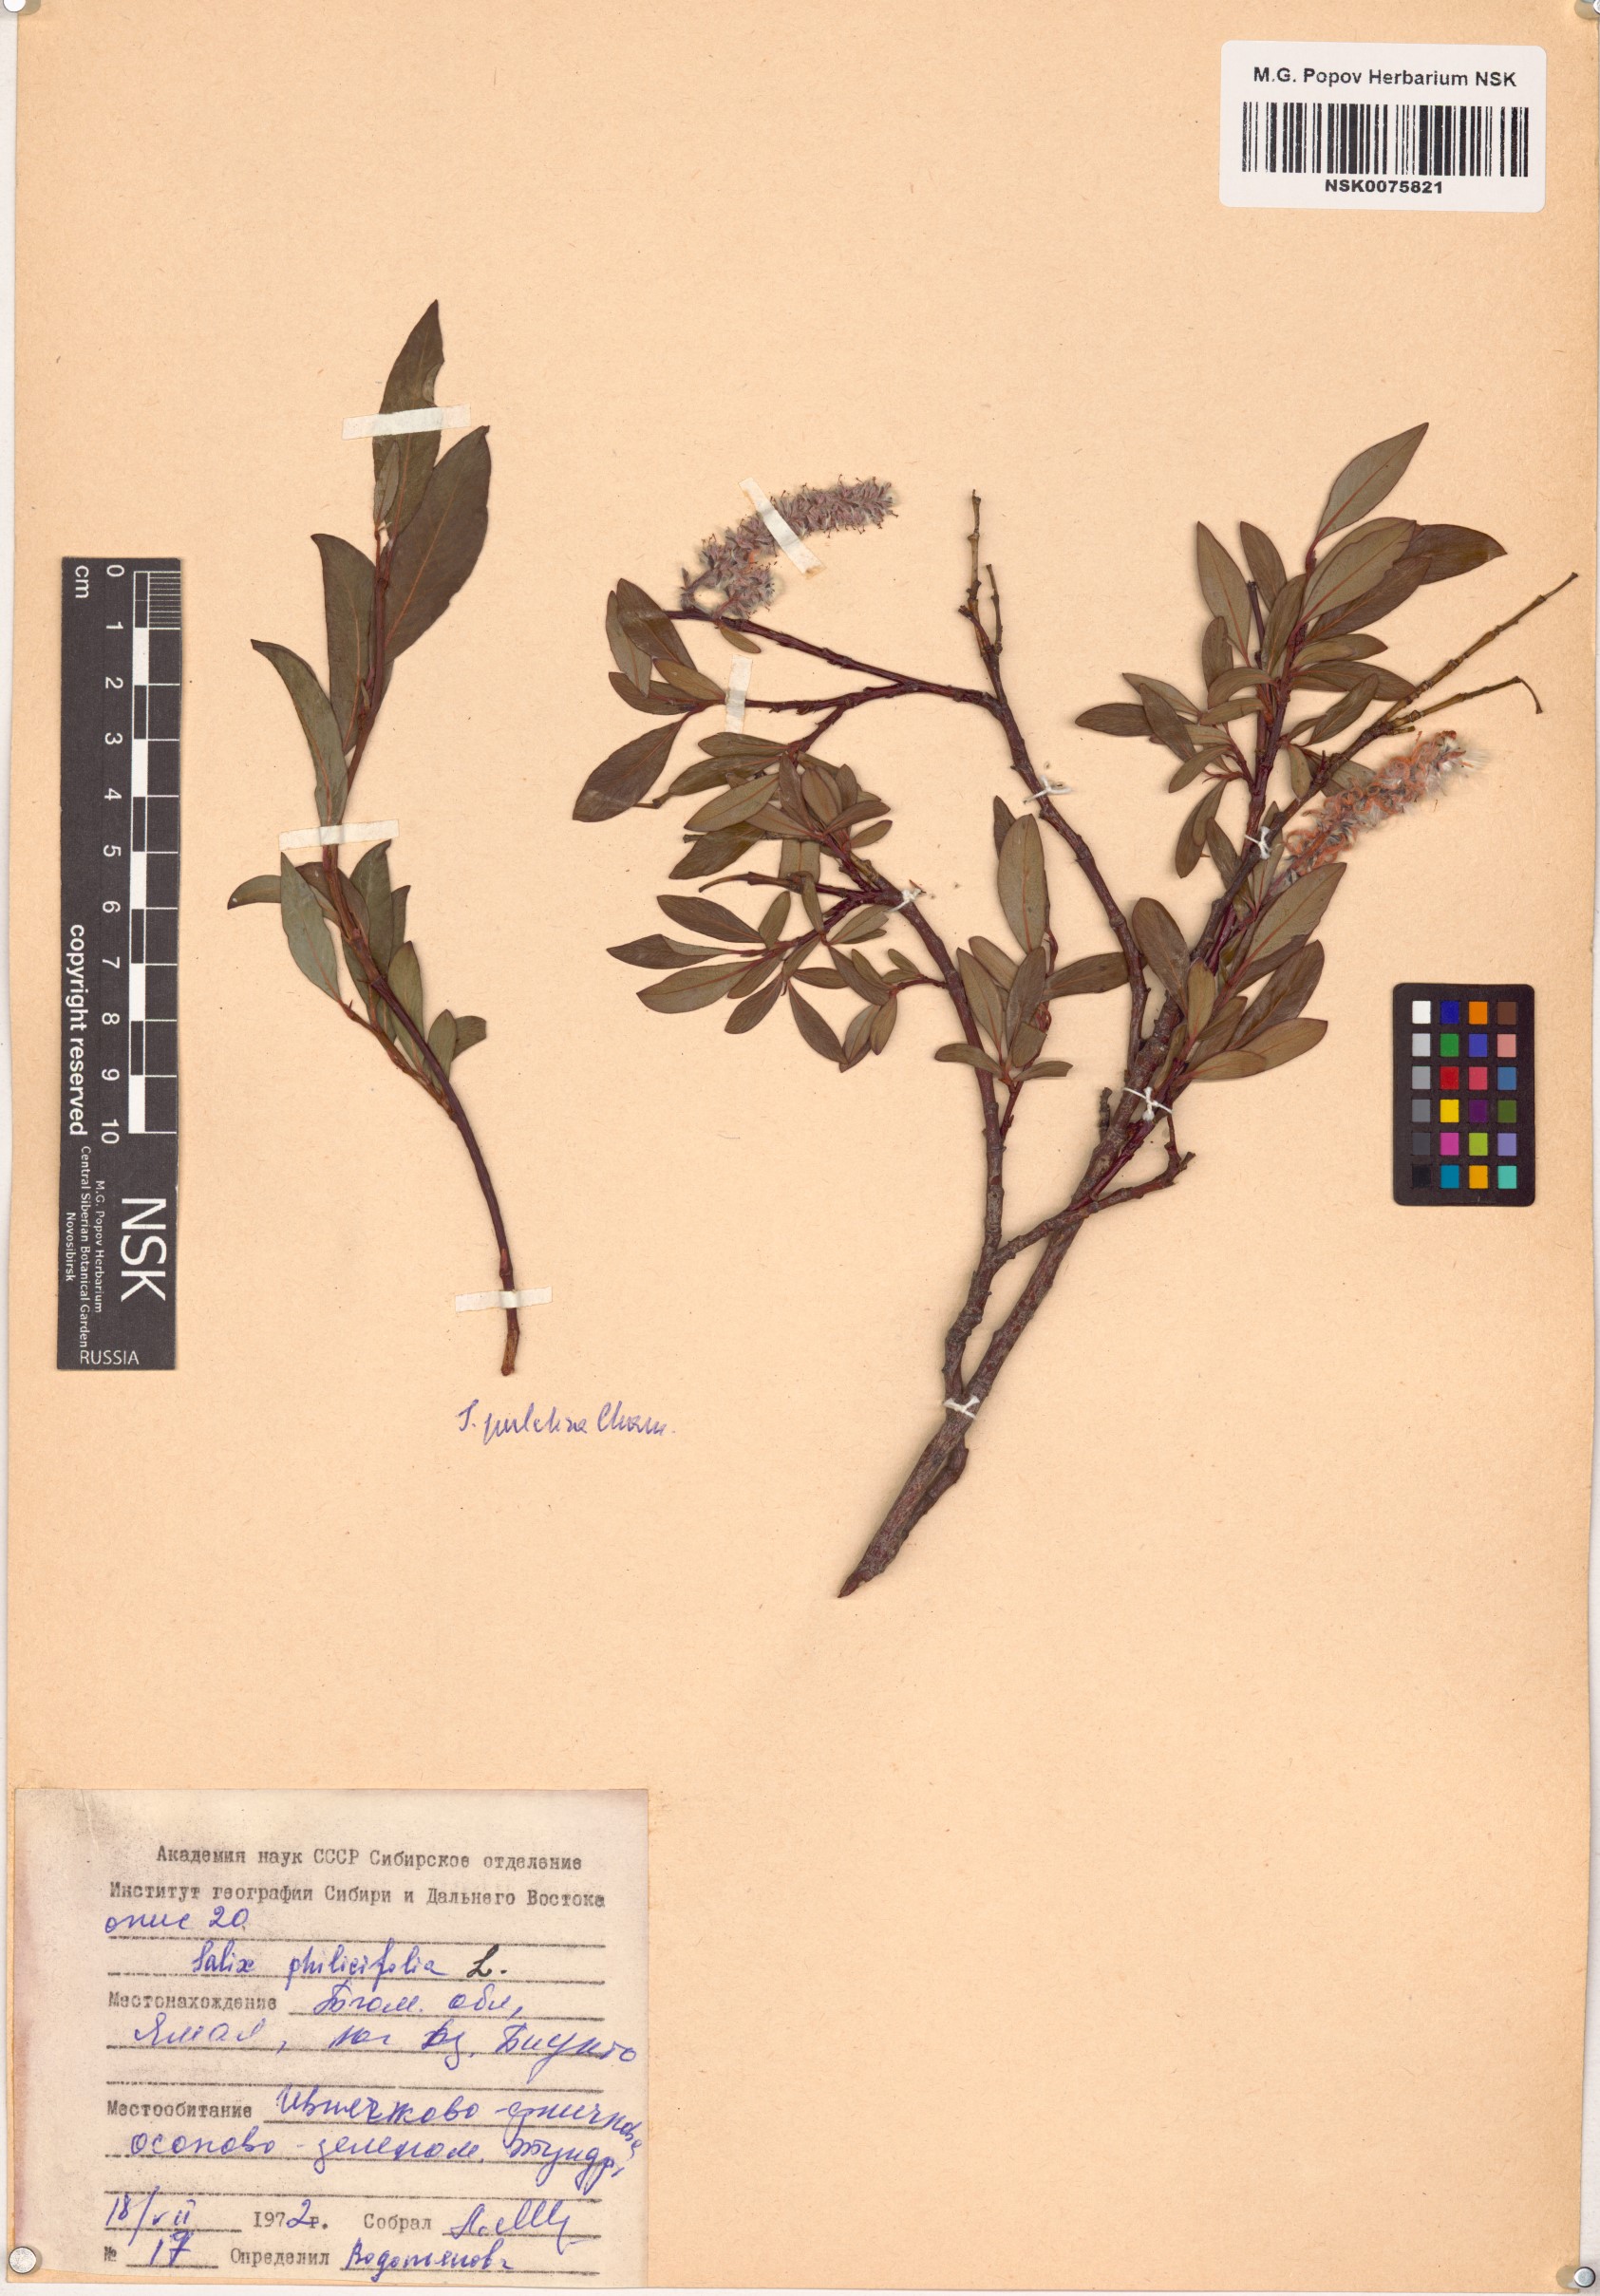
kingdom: Plantae
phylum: Tracheophyta
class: Magnoliopsida
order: Malpighiales
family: Salicaceae
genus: Salix
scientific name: Salix phylicifolia
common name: Tea-leaved willow
